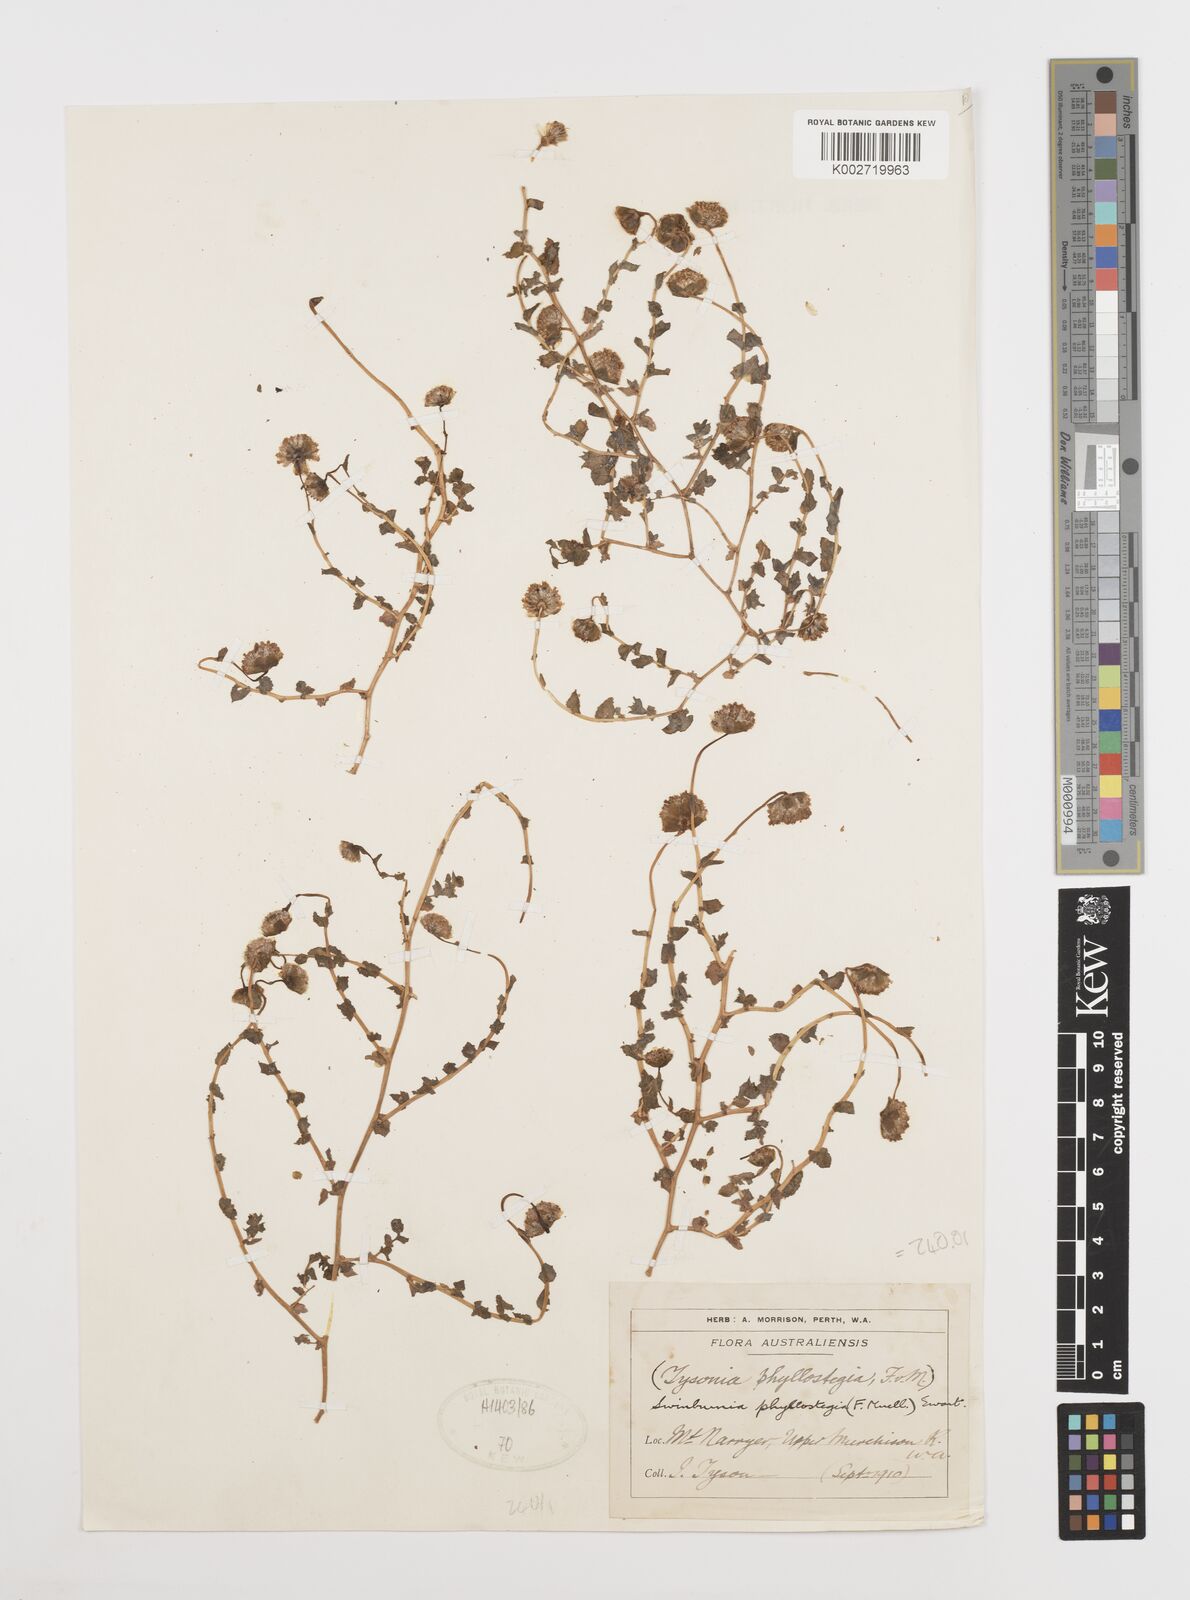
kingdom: Plantae
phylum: Tracheophyta
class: Magnoliopsida
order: Asterales
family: Asteraceae
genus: Neotysonia
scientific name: Neotysonia phyllostegia
